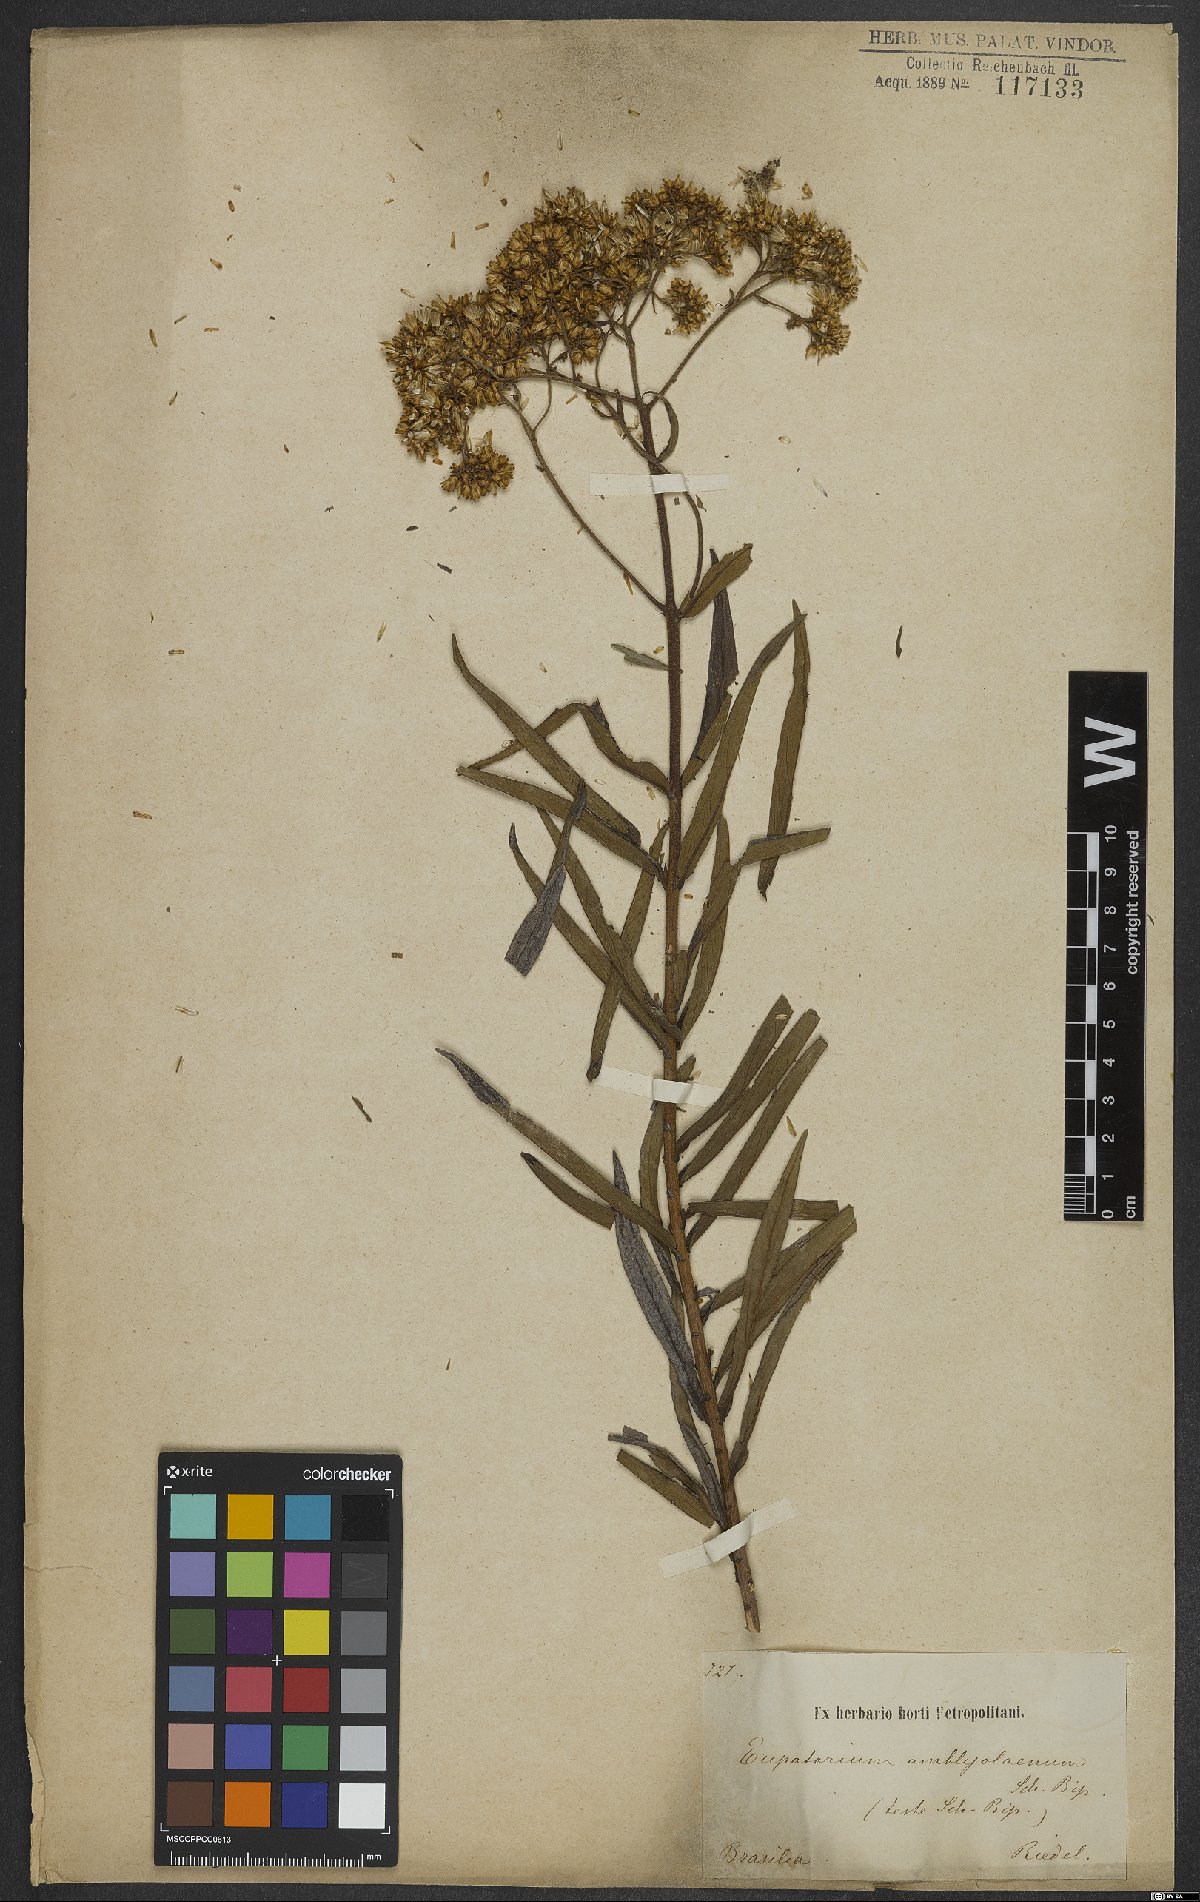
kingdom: Plantae
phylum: Tracheophyta
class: Magnoliopsida
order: Asterales
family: Asteraceae
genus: Campovassouria
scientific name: Campovassouria cruciata
